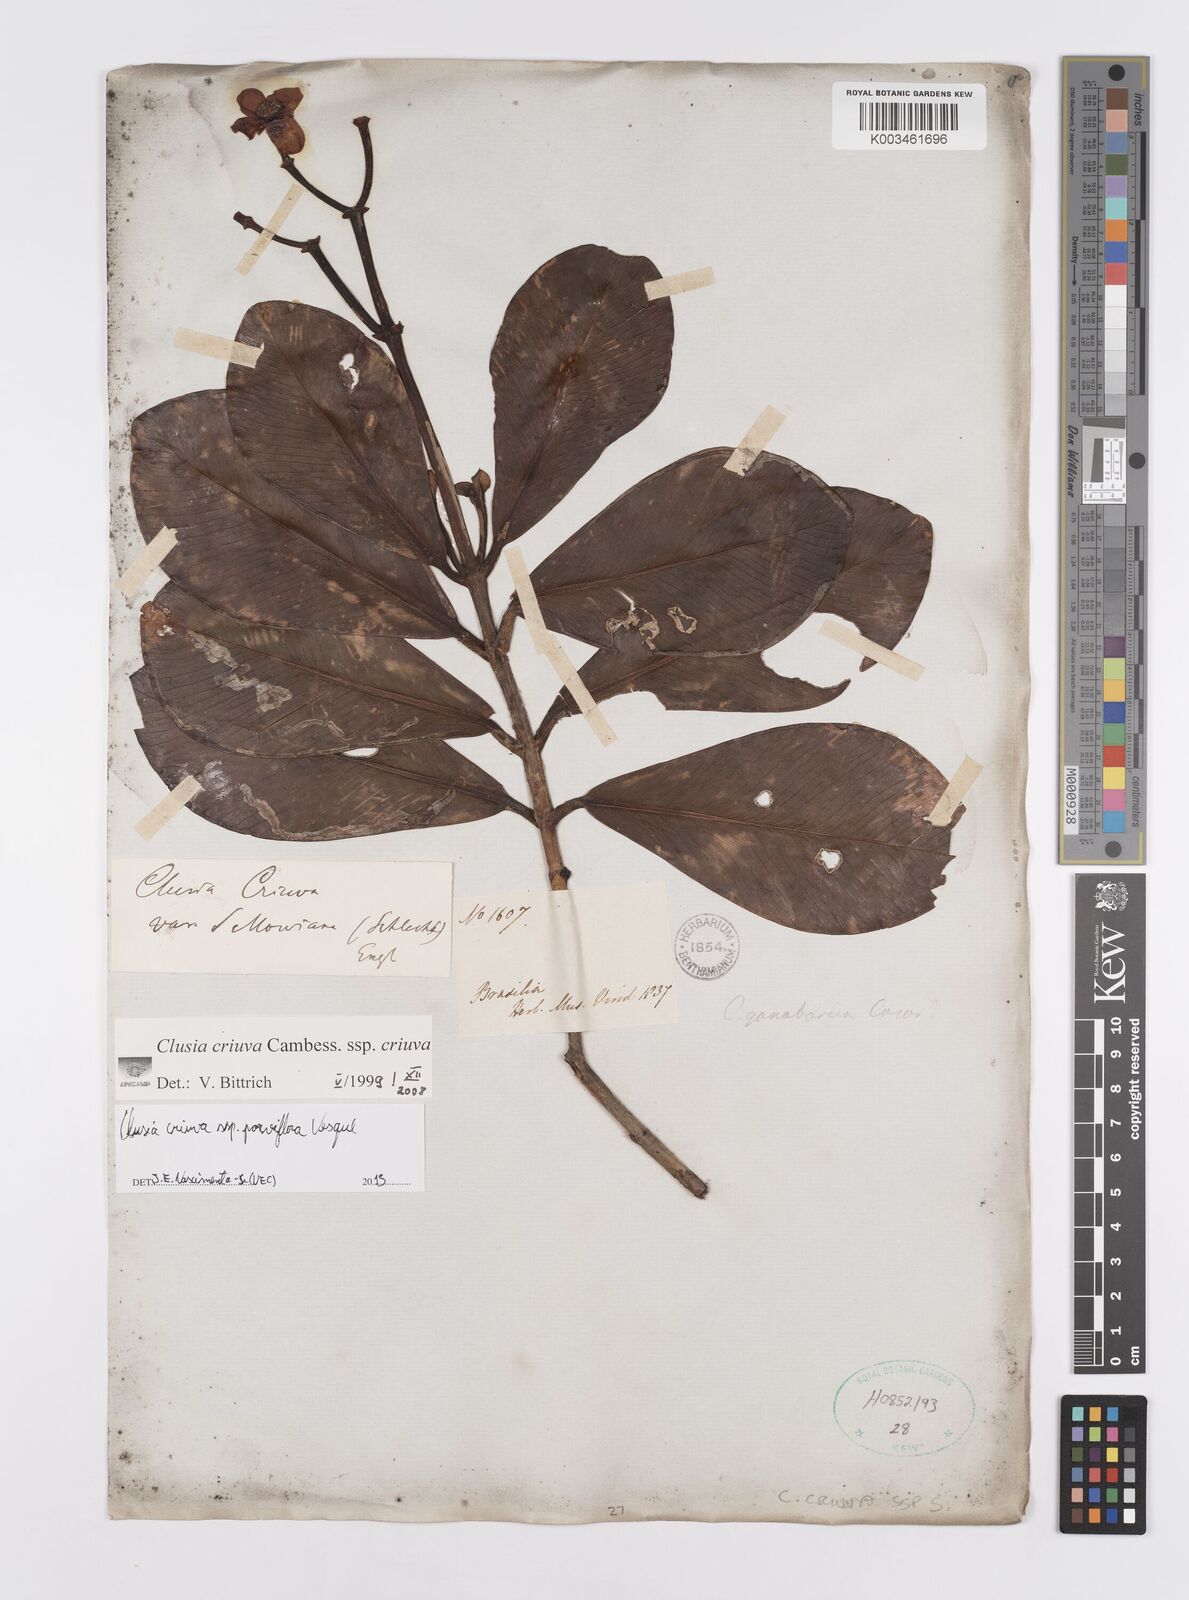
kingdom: Plantae
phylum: Tracheophyta
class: Magnoliopsida
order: Malpighiales
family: Clusiaceae
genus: Clusia
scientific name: Clusia criuva
